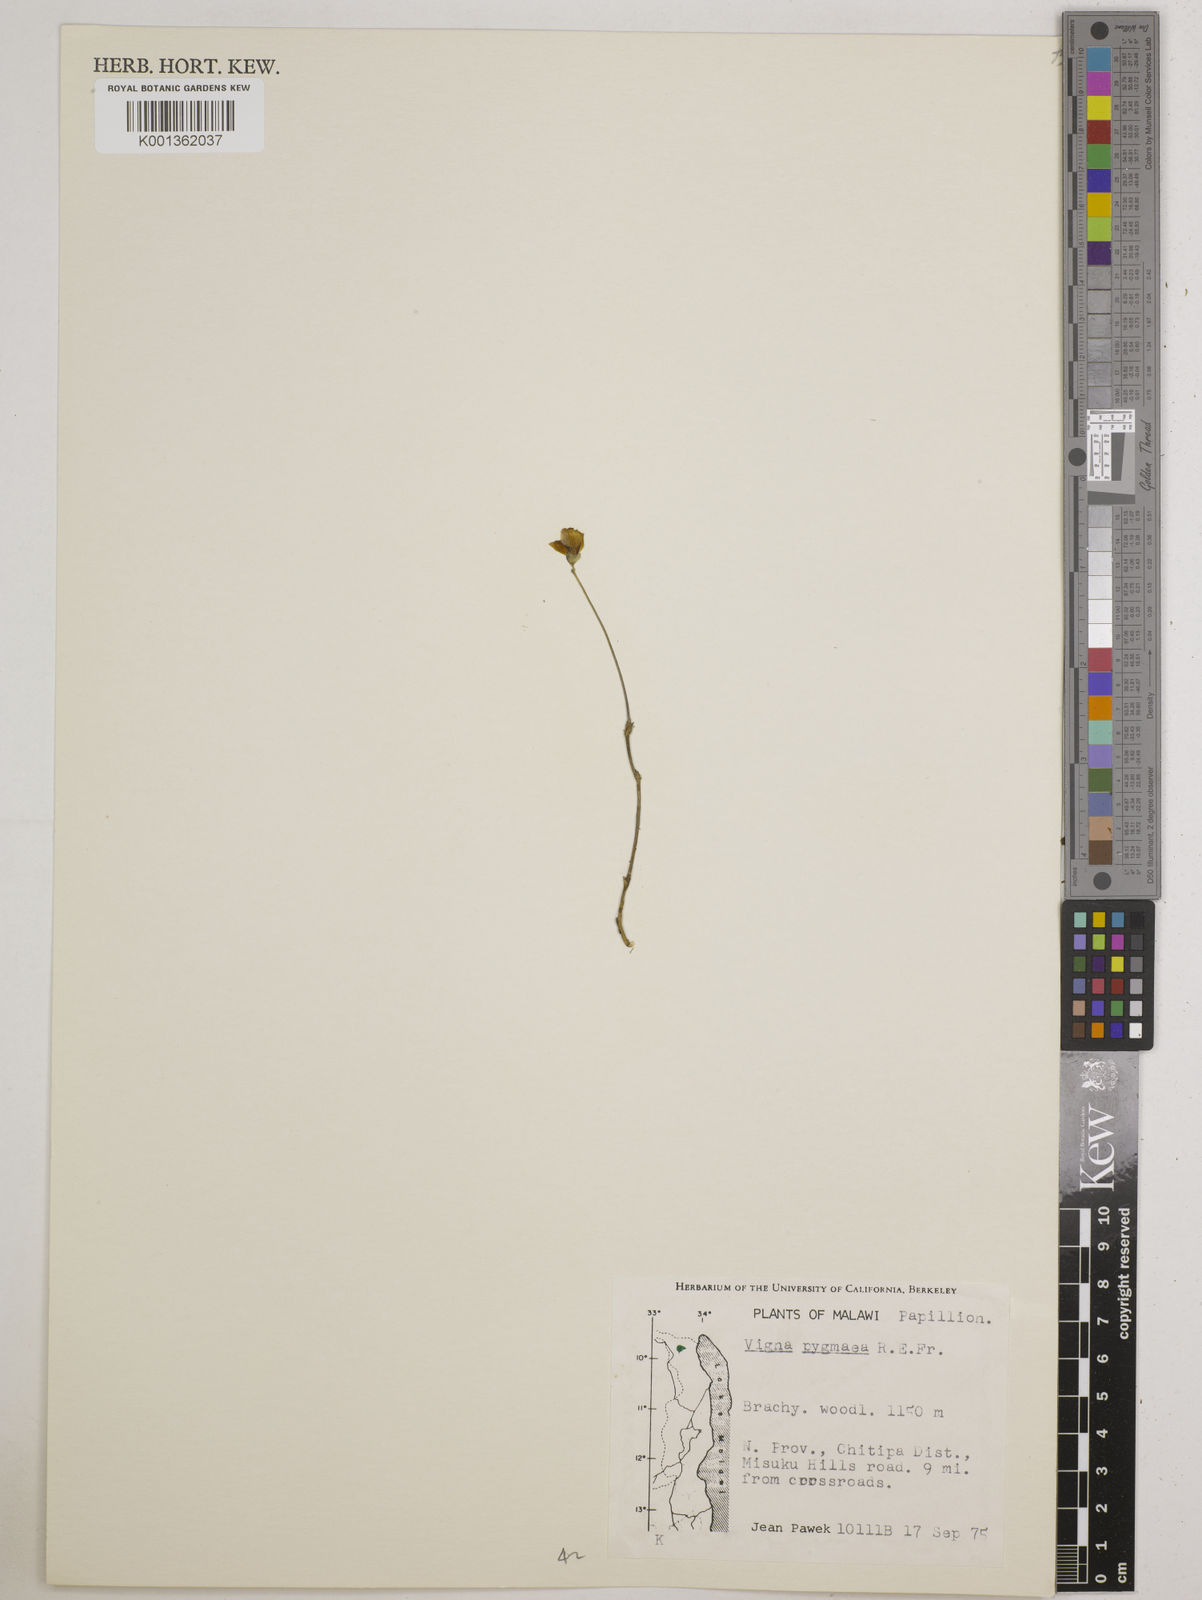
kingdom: Plantae
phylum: Tracheophyta
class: Magnoliopsida
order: Fabales
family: Fabaceae
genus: Vigna
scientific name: Vigna pygmaea
